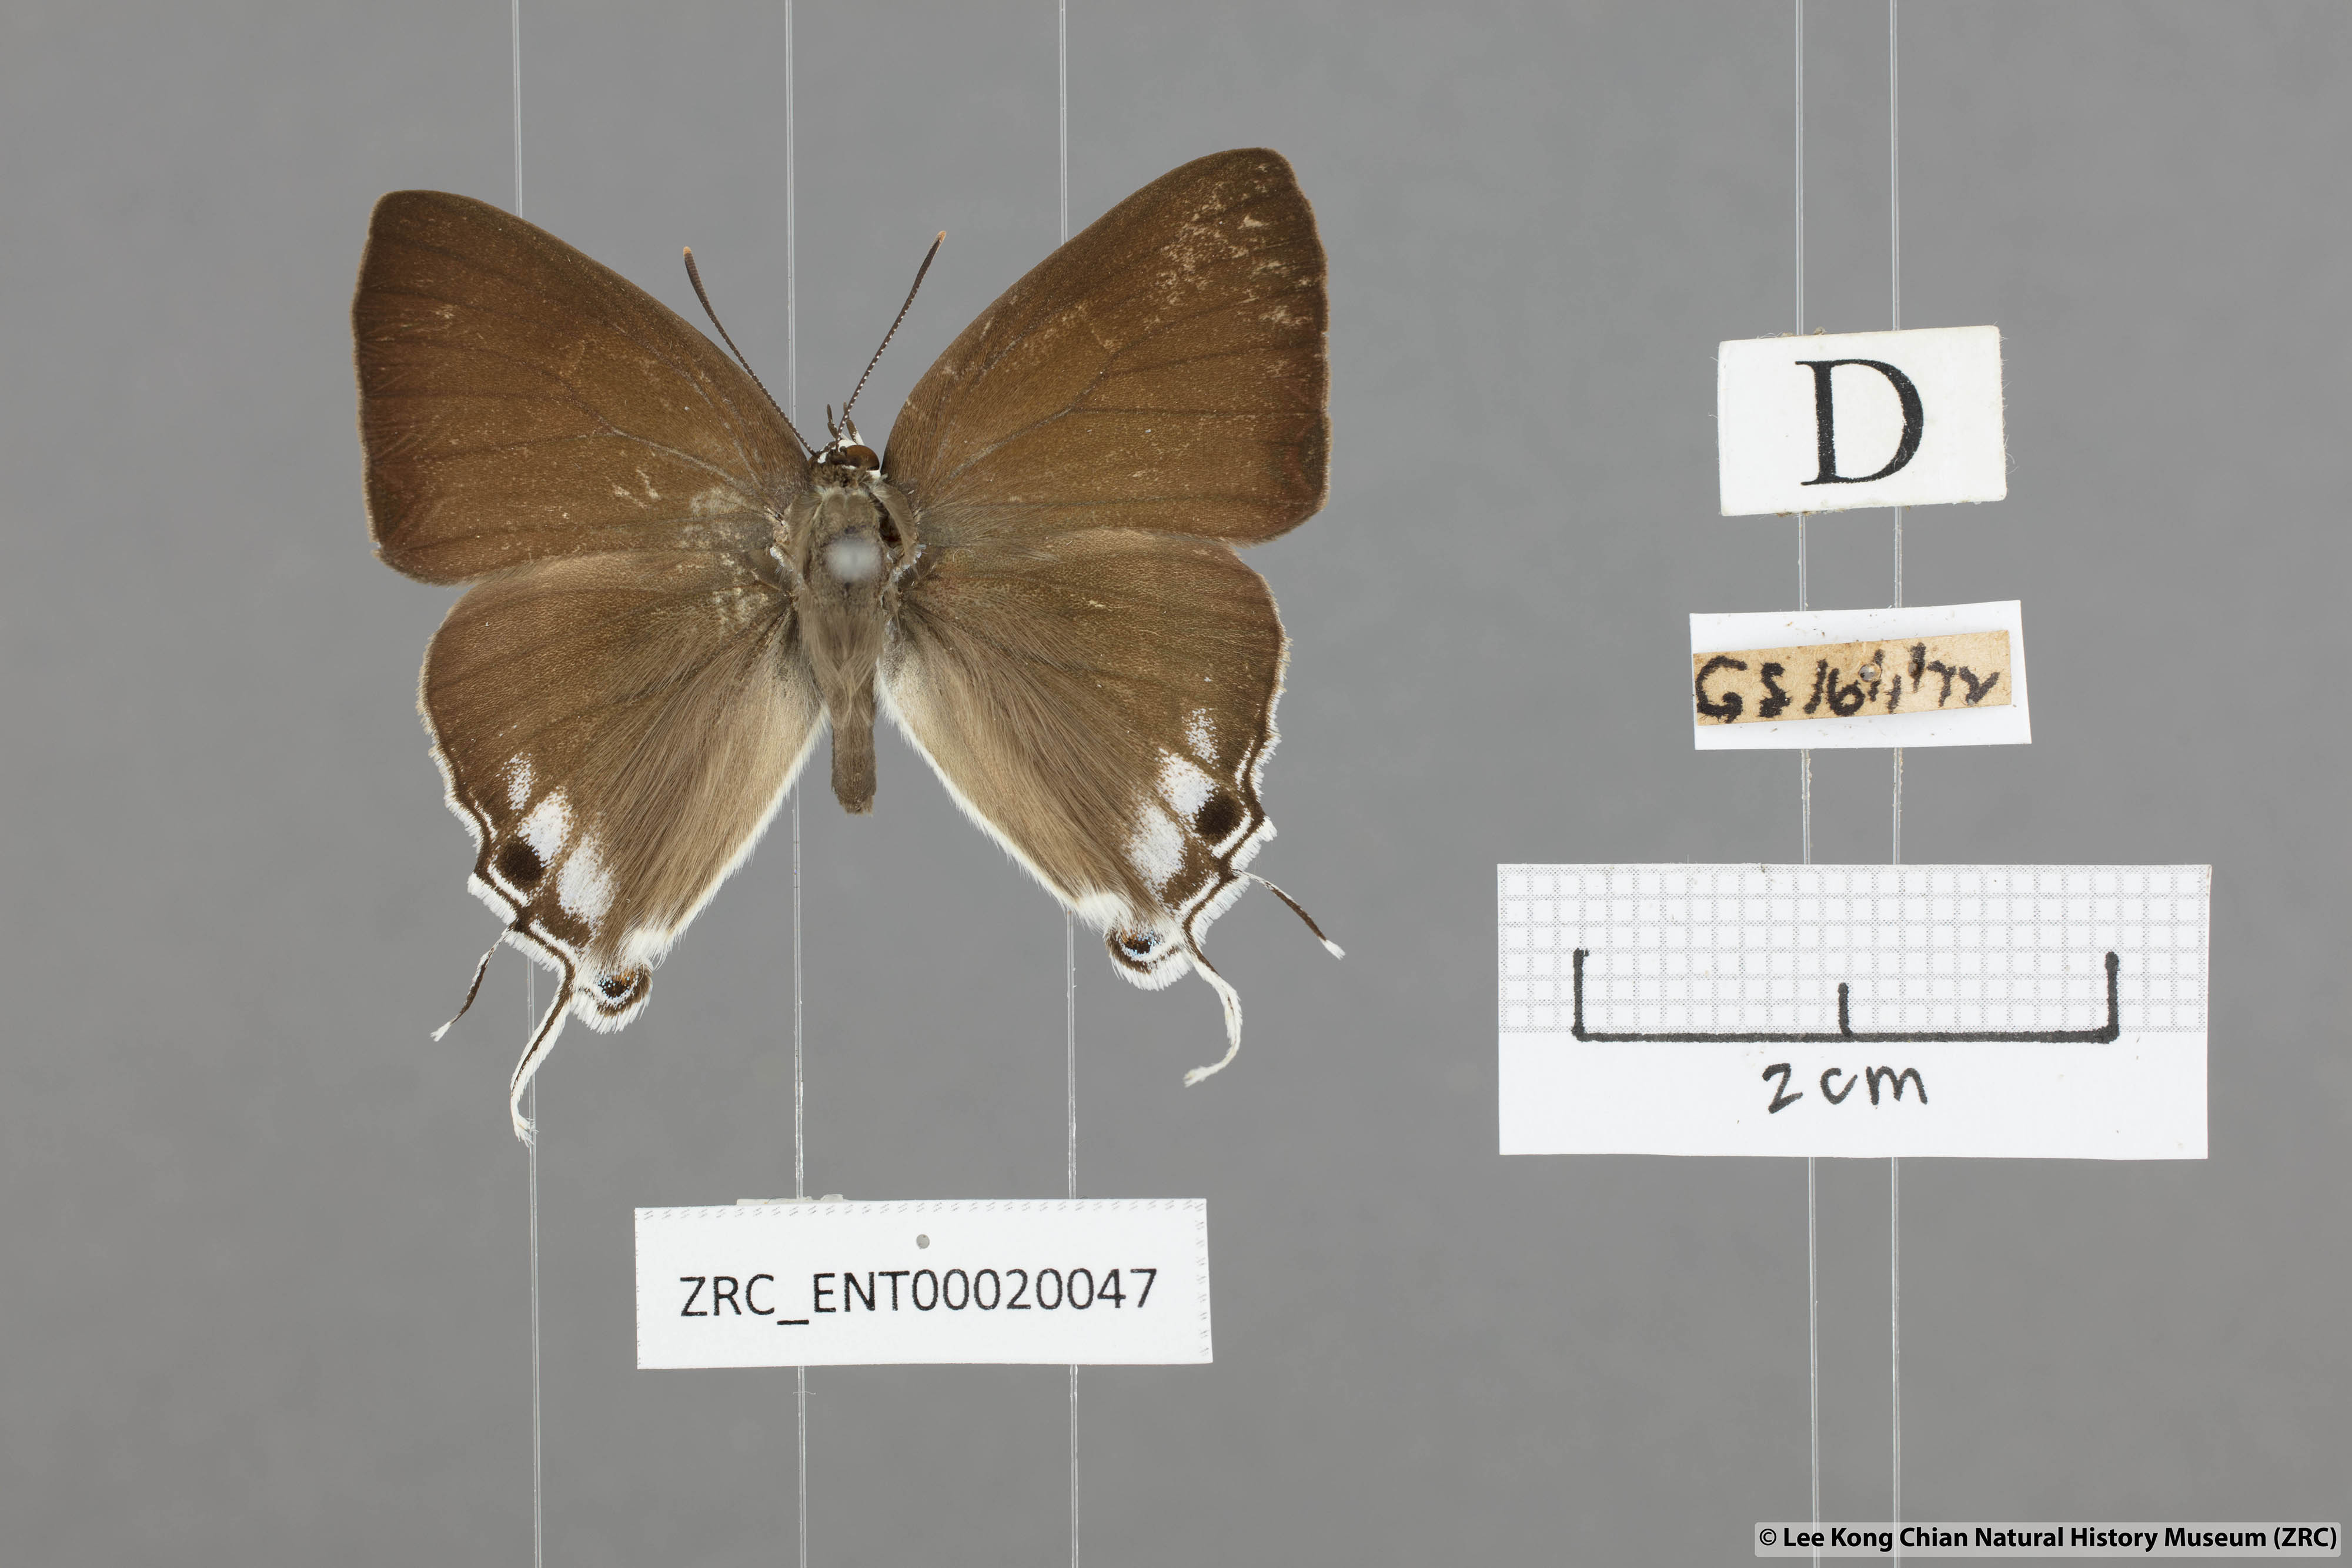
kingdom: Animalia
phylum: Arthropoda
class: Insecta
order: Lepidoptera
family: Hesperiidae
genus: Rachana
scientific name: Rachana jalindra
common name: Banded royal
